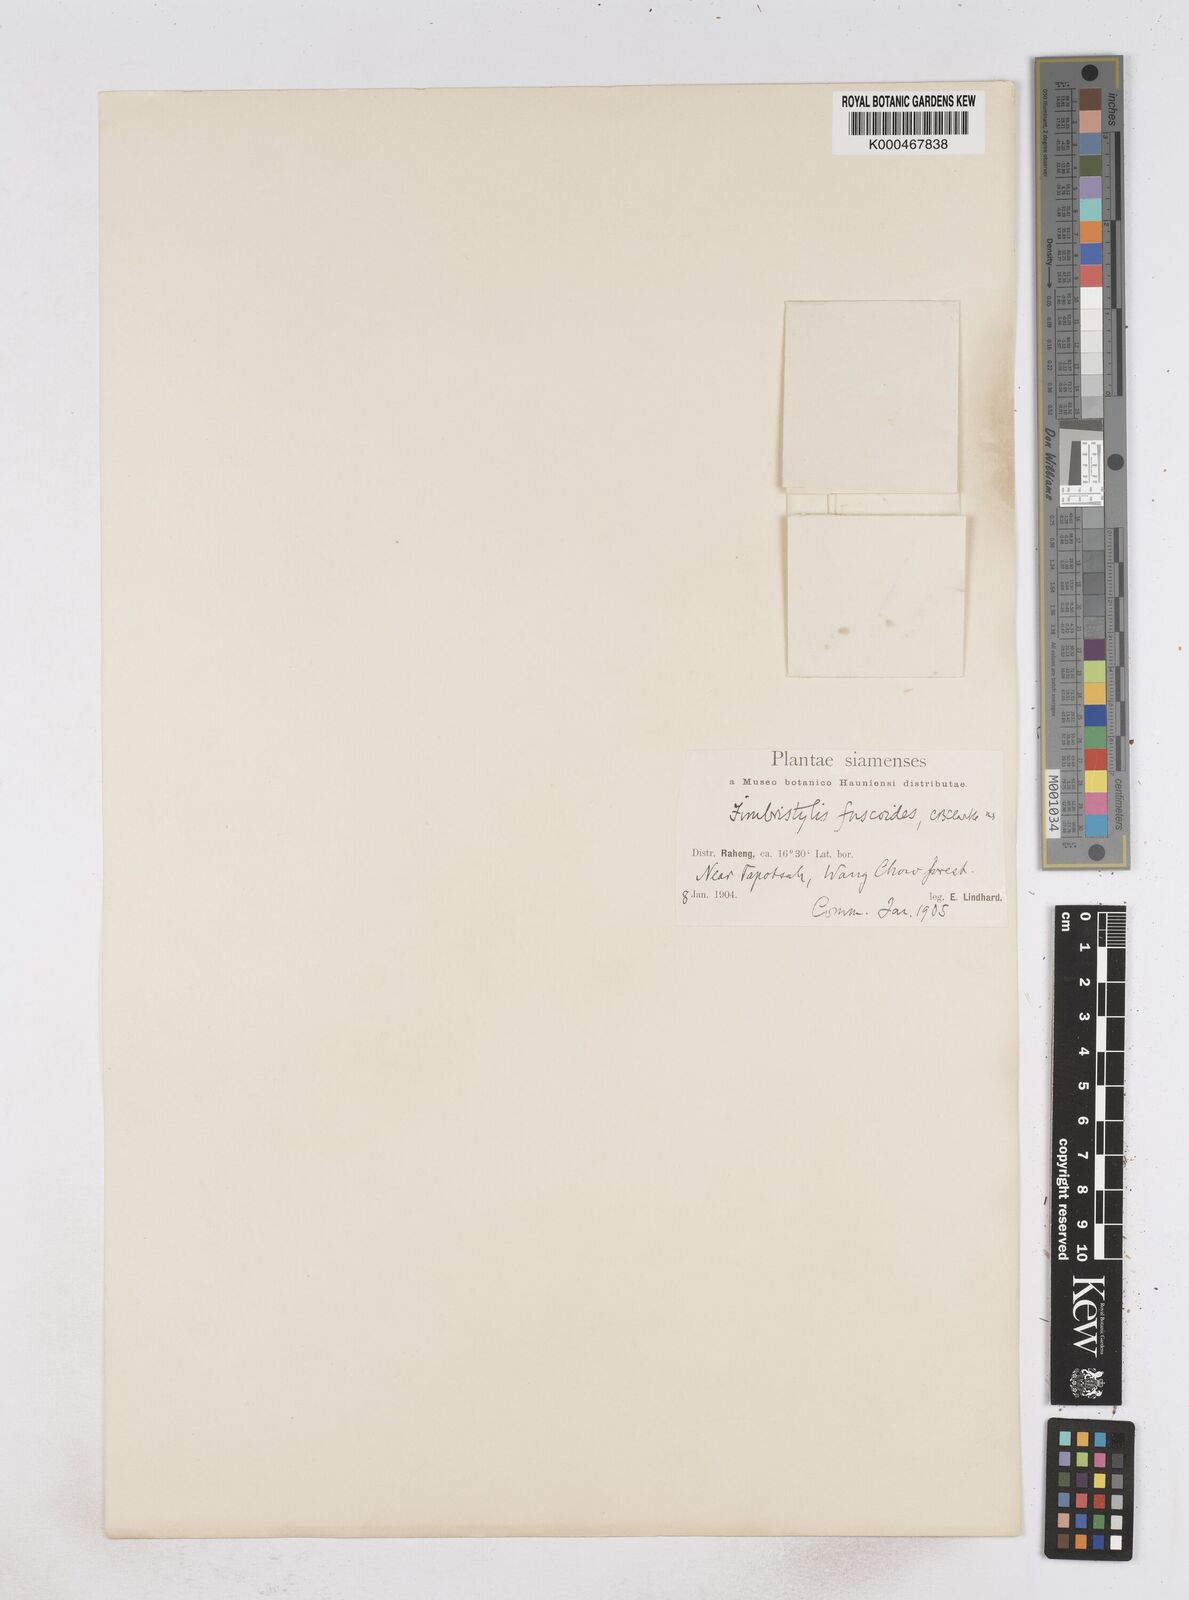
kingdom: Plantae
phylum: Tracheophyta
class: Liliopsida
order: Poales
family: Cyperaceae
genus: Fimbristylis
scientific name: Fimbristylis fuscoides
